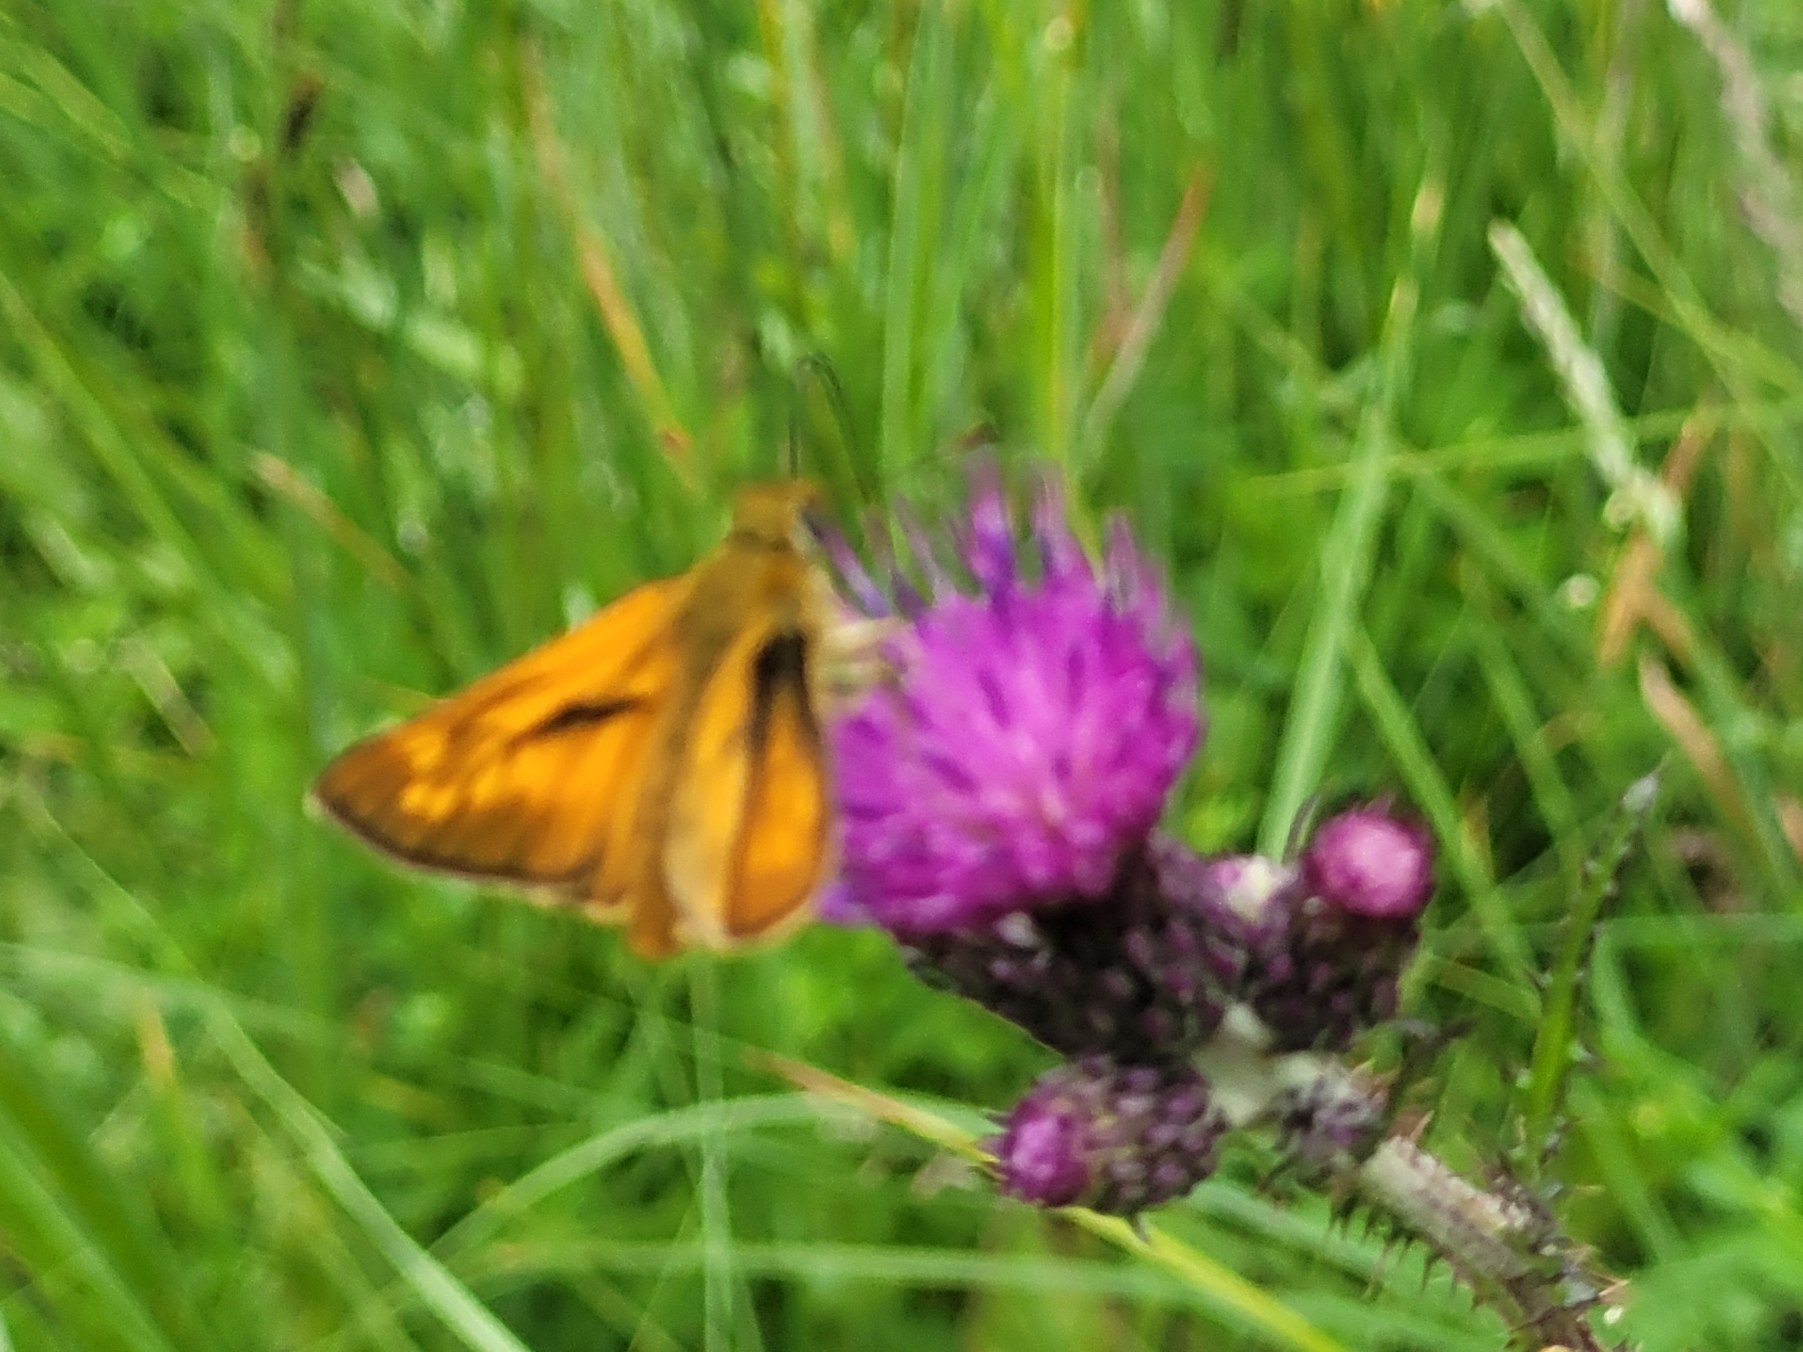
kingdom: Animalia
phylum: Arthropoda
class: Insecta
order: Lepidoptera
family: Hesperiidae
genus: Ochlodes
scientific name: Ochlodes venata
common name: Stor bredpande
